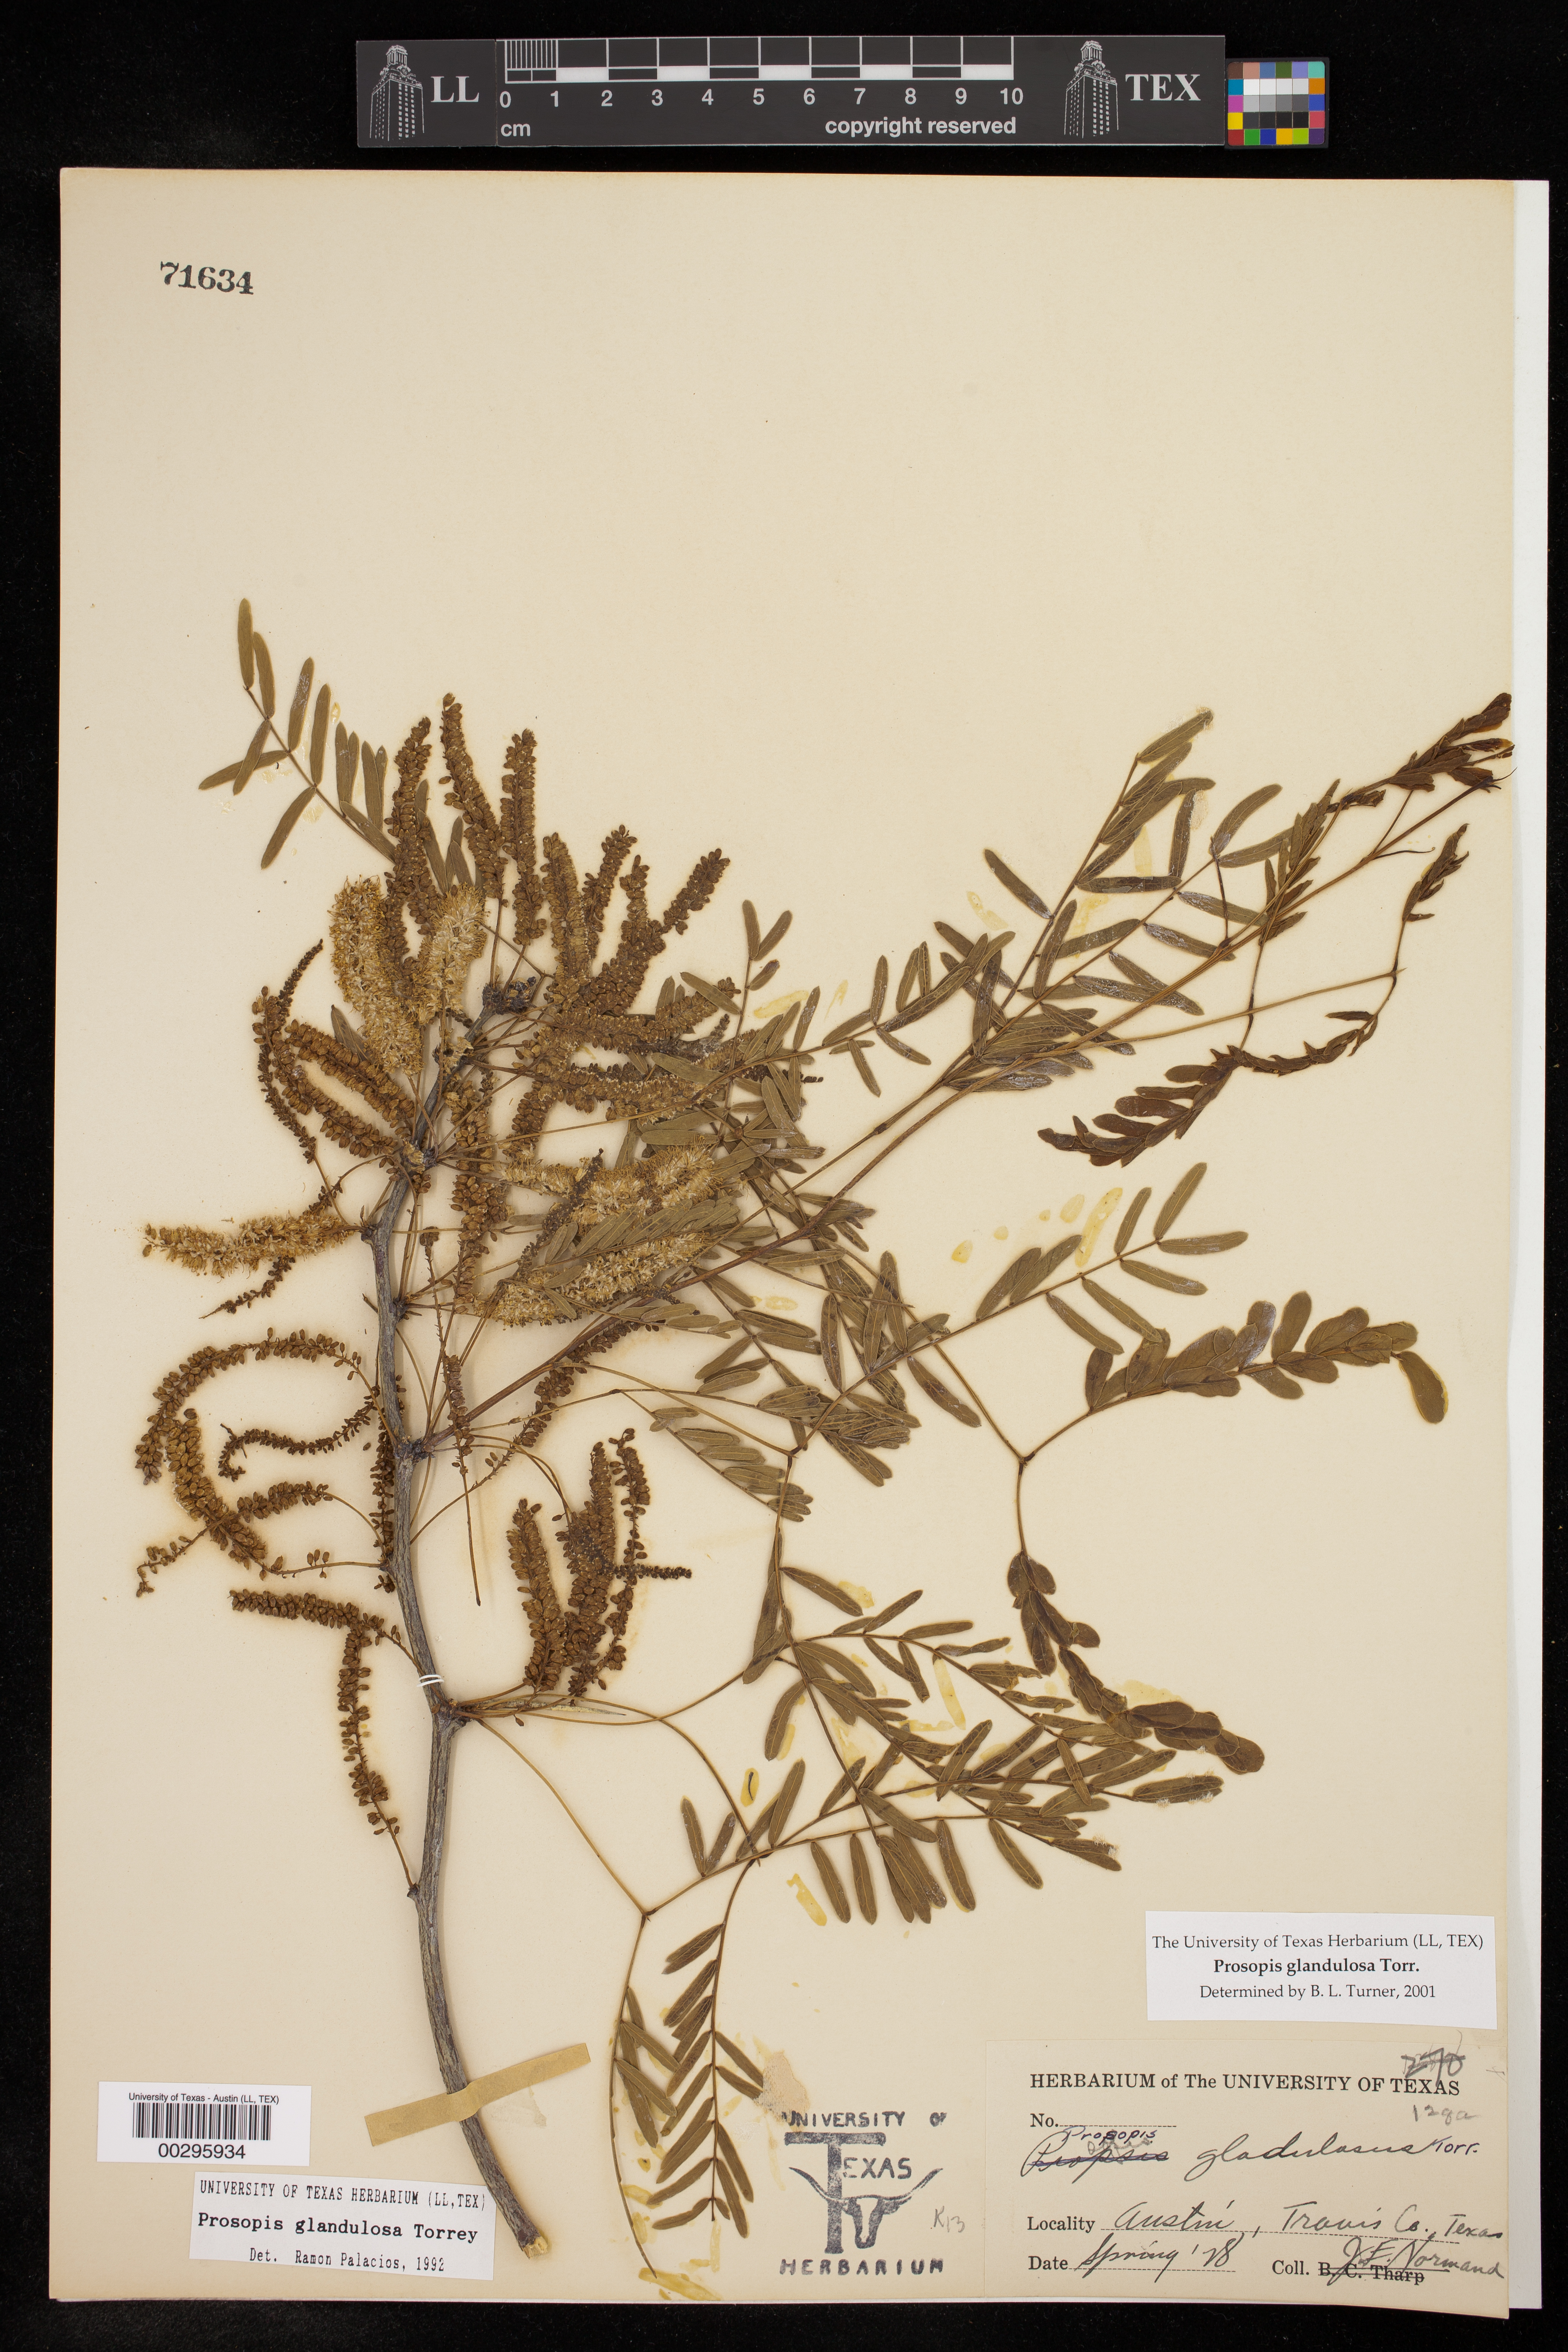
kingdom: Plantae
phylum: Tracheophyta
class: Magnoliopsida
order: Fabales
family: Fabaceae
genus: Prosopis
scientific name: Prosopis glandulosa
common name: Honey mesquite
